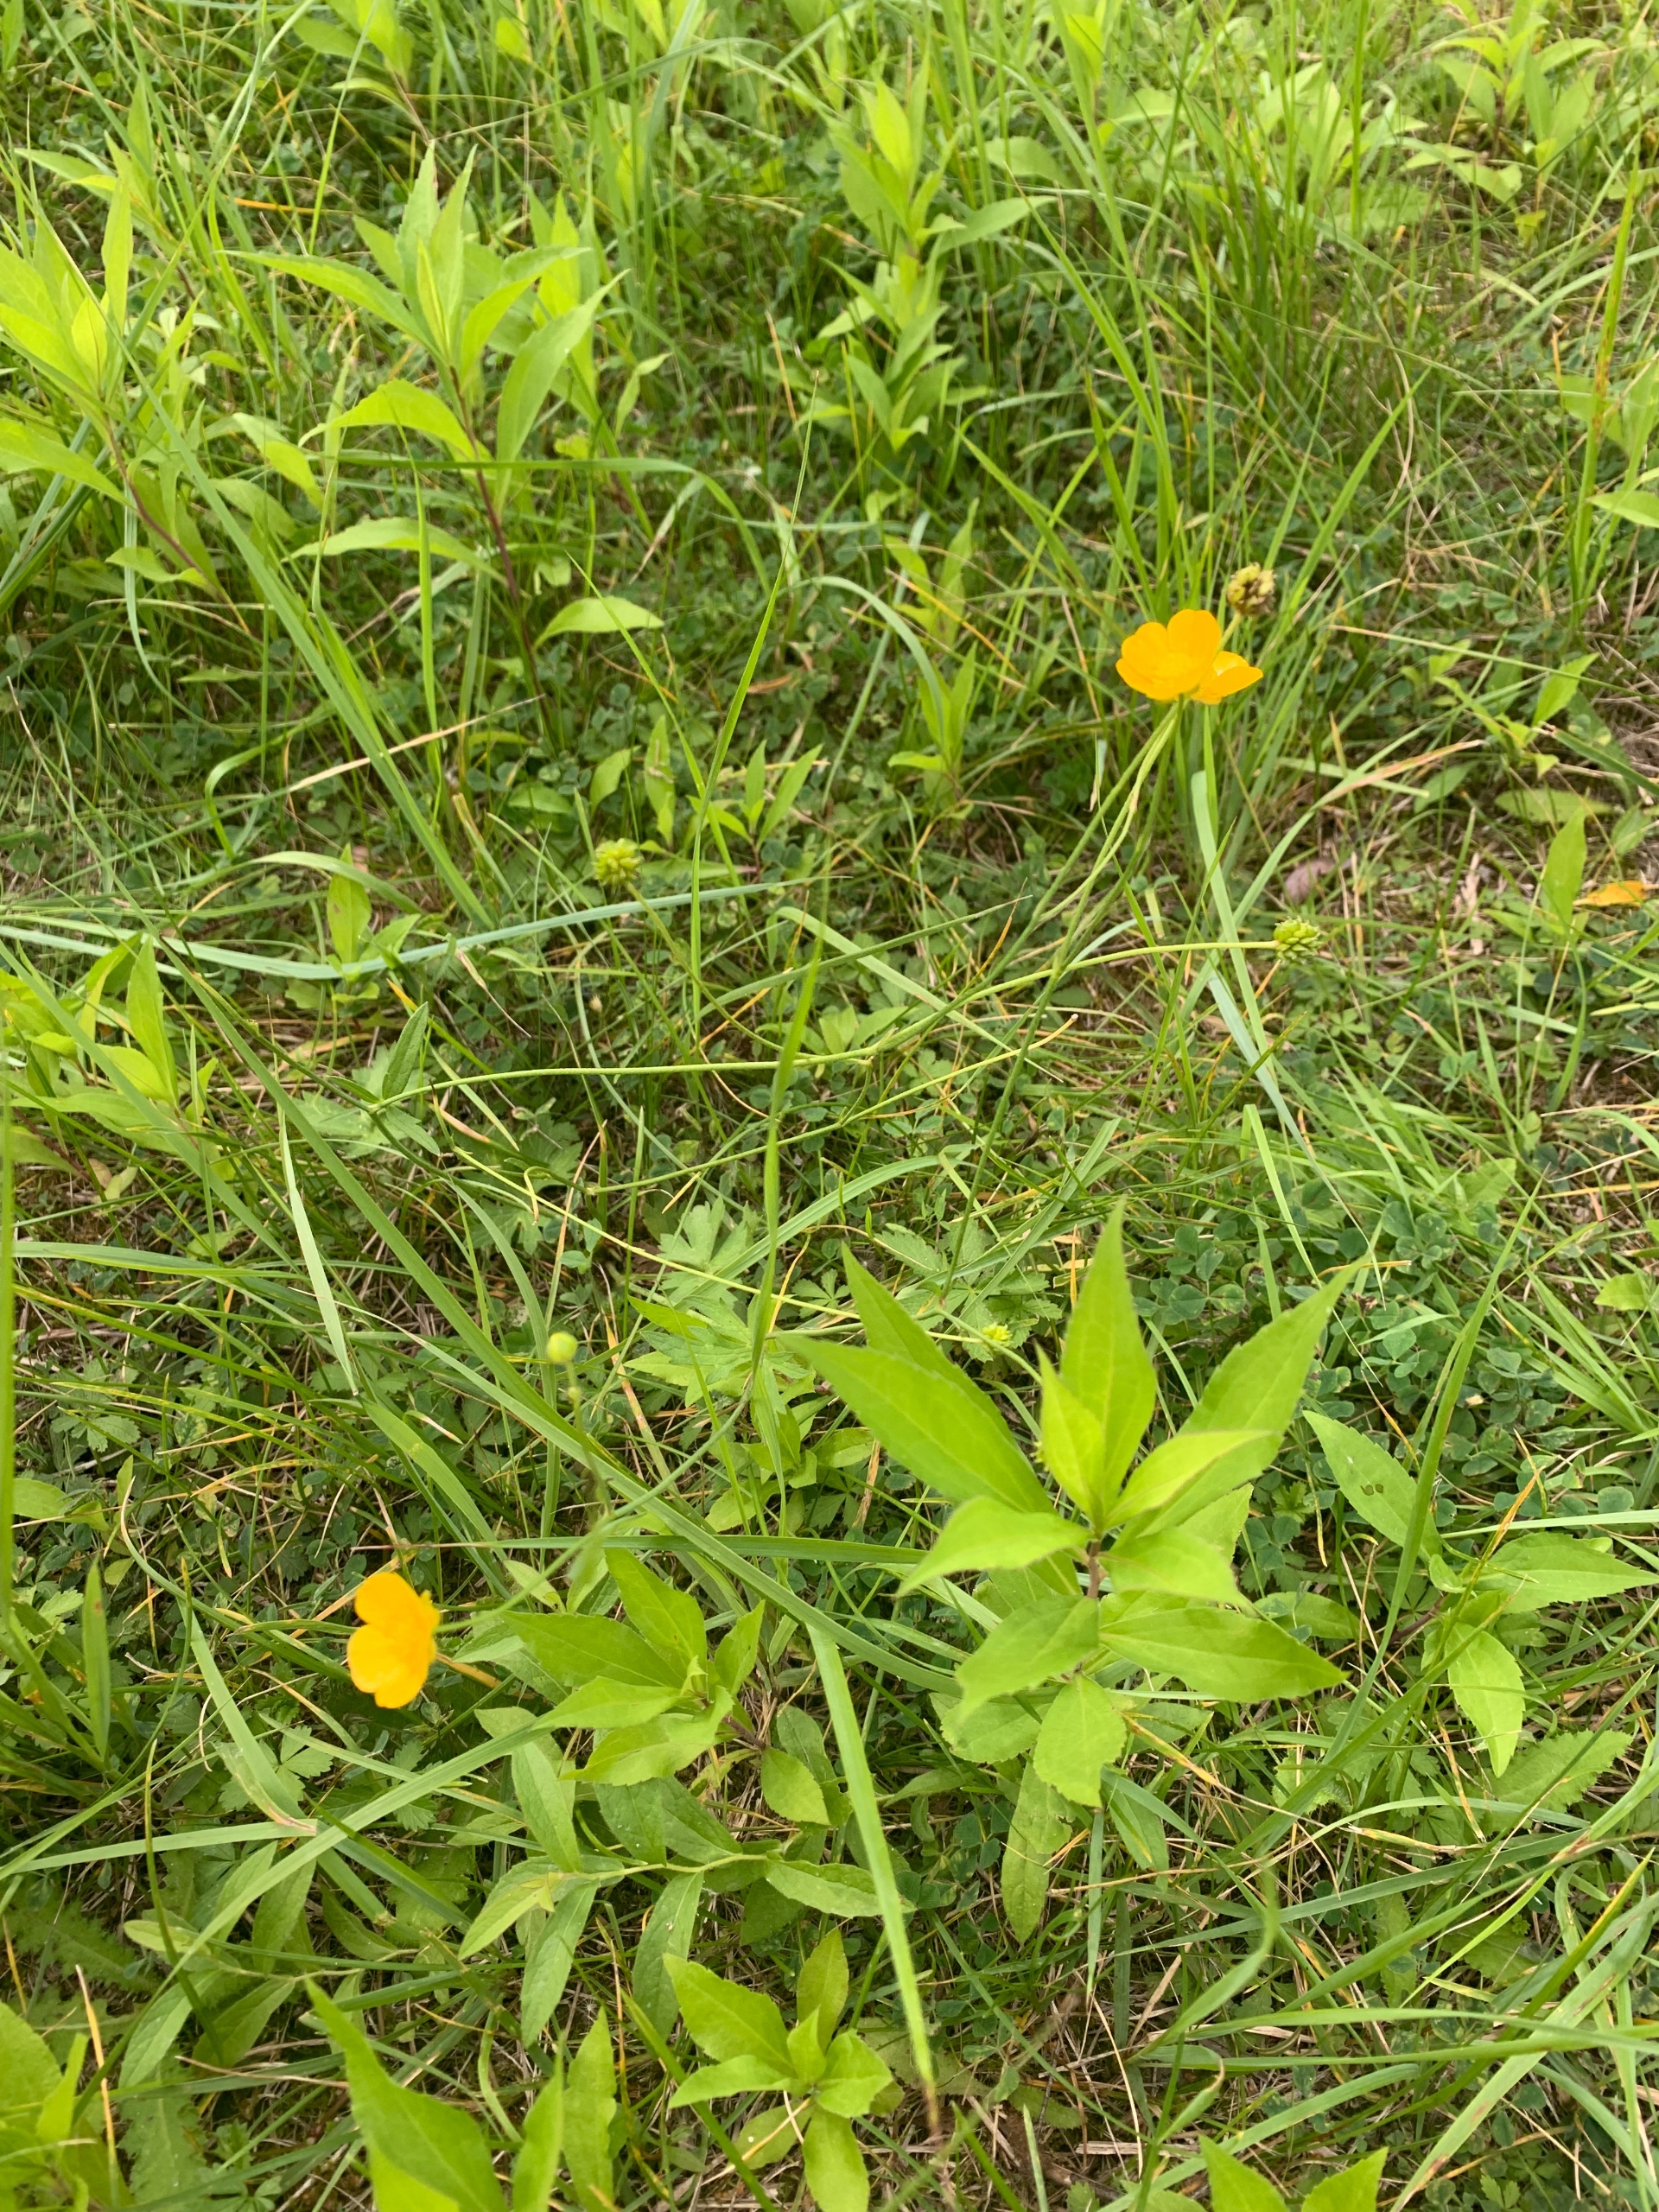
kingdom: Plantae
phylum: Tracheophyta
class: Magnoliopsida
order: Ranunculales
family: Ranunculaceae
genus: Ranunculus
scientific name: Ranunculus acris
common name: Bidende ranunkel
